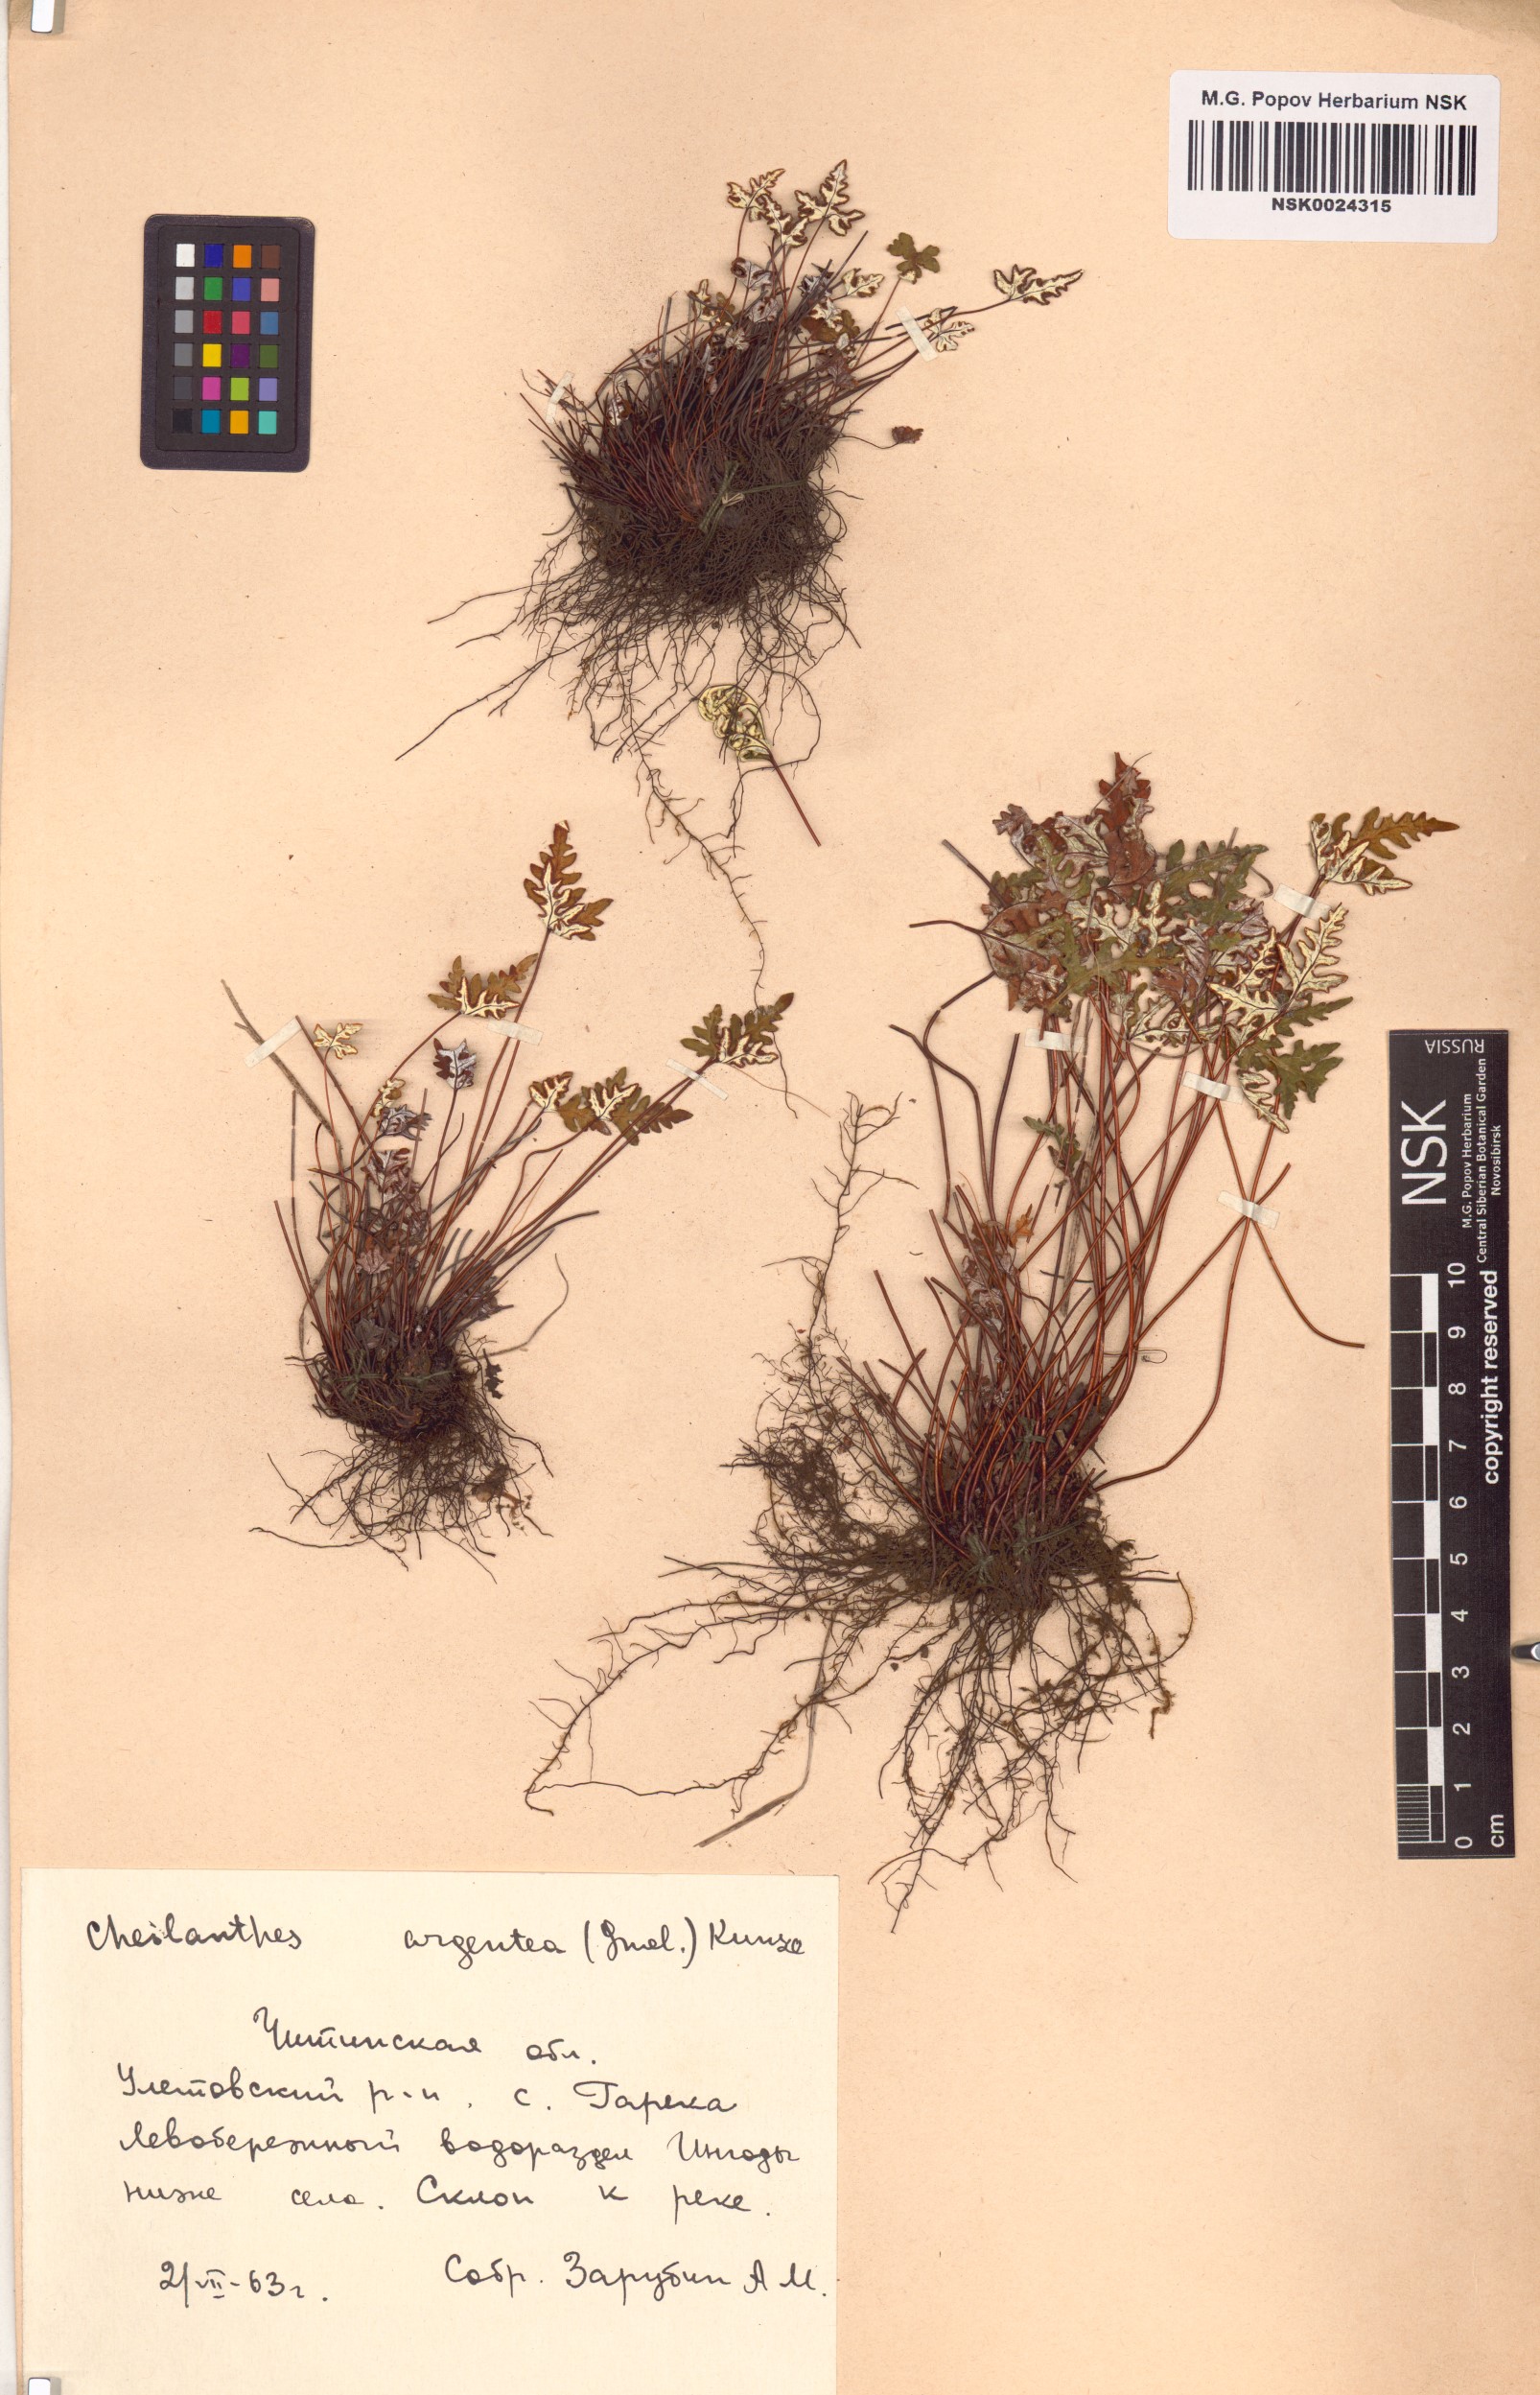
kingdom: Plantae
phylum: Tracheophyta
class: Polypodiopsida
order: Polypodiales
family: Pteridaceae
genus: Aleuritopteris
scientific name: Aleuritopteris argentea
